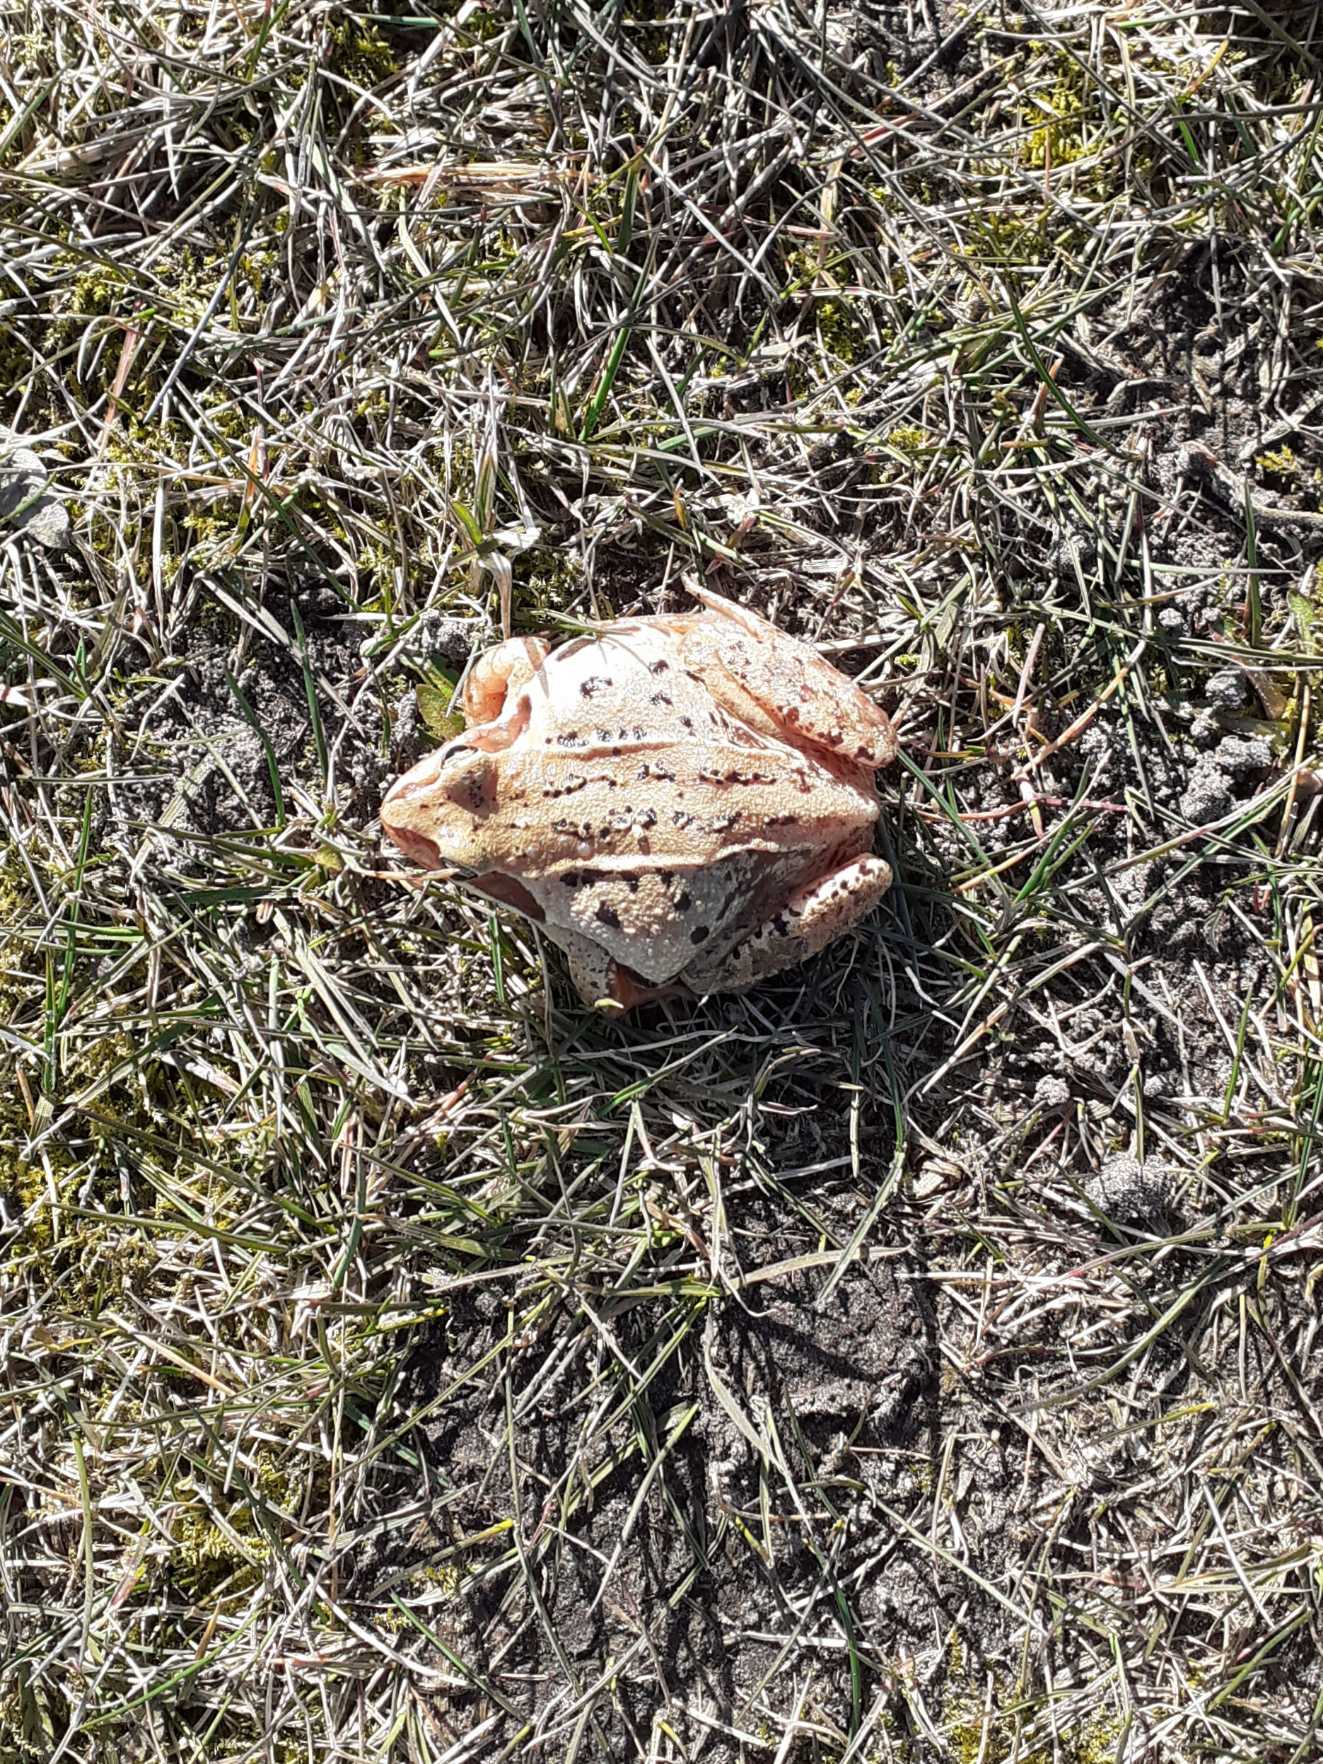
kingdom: Animalia
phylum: Chordata
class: Amphibia
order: Anura
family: Ranidae
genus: Rana
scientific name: Rana arvalis
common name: Spidssnudet frø
